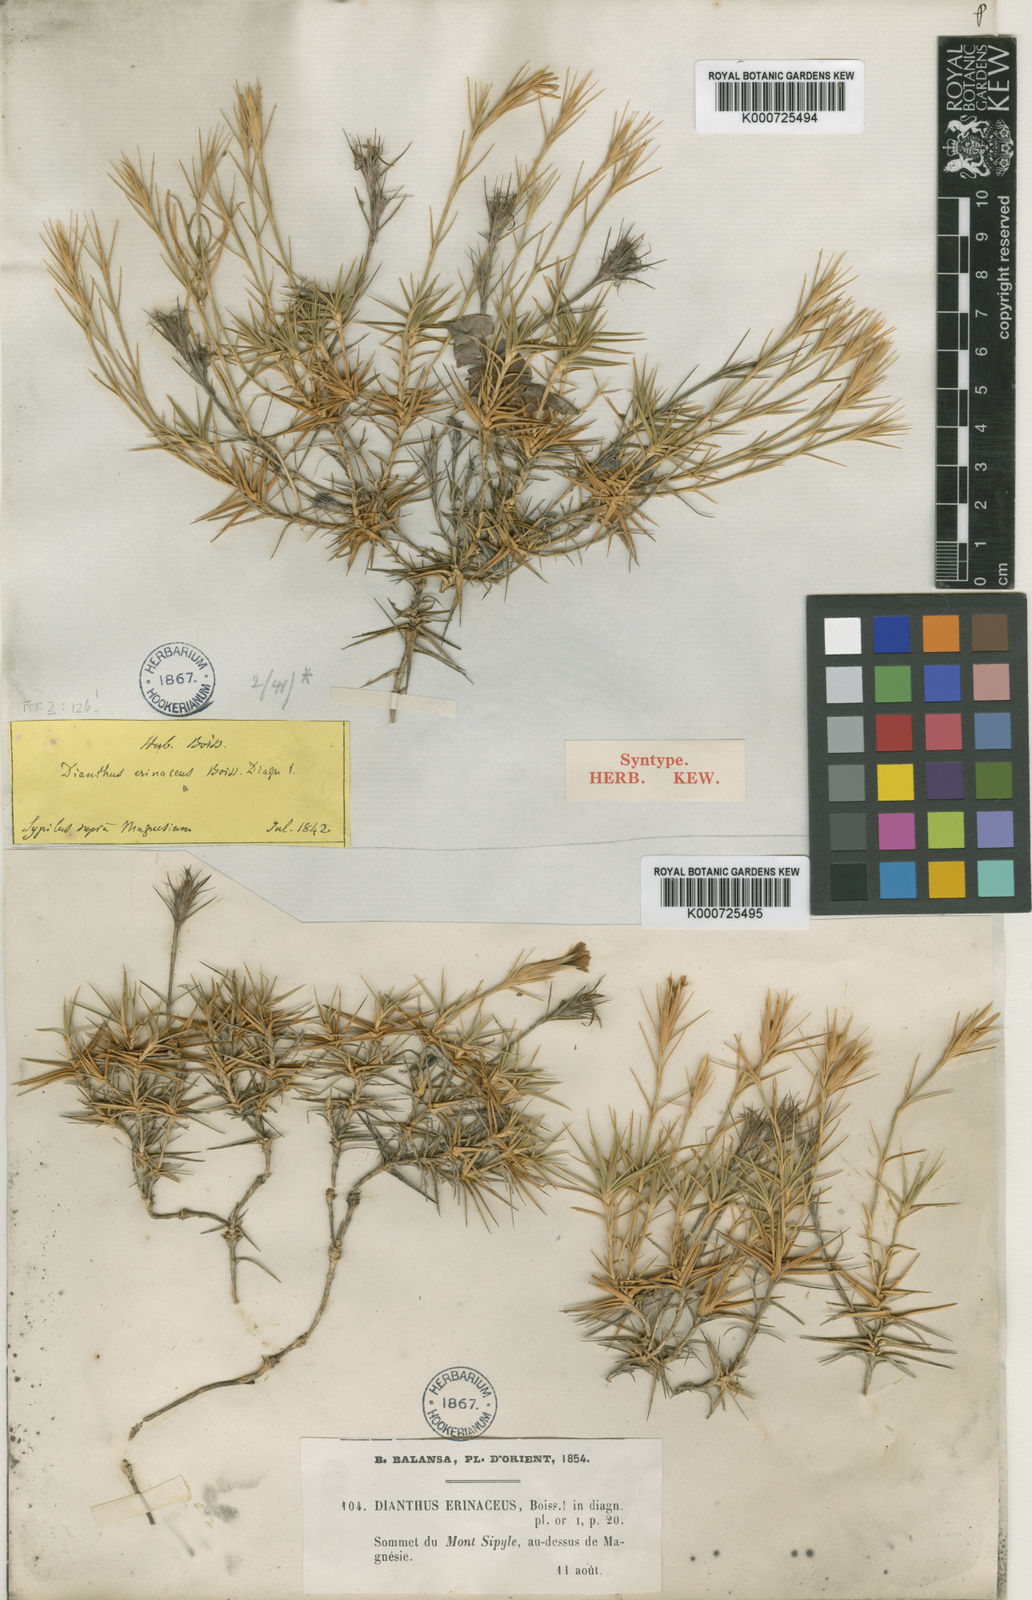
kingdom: Plantae
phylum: Tracheophyta
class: Magnoliopsida
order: Caryophyllales
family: Caryophyllaceae
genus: Dianthus
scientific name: Dianthus webbianus
